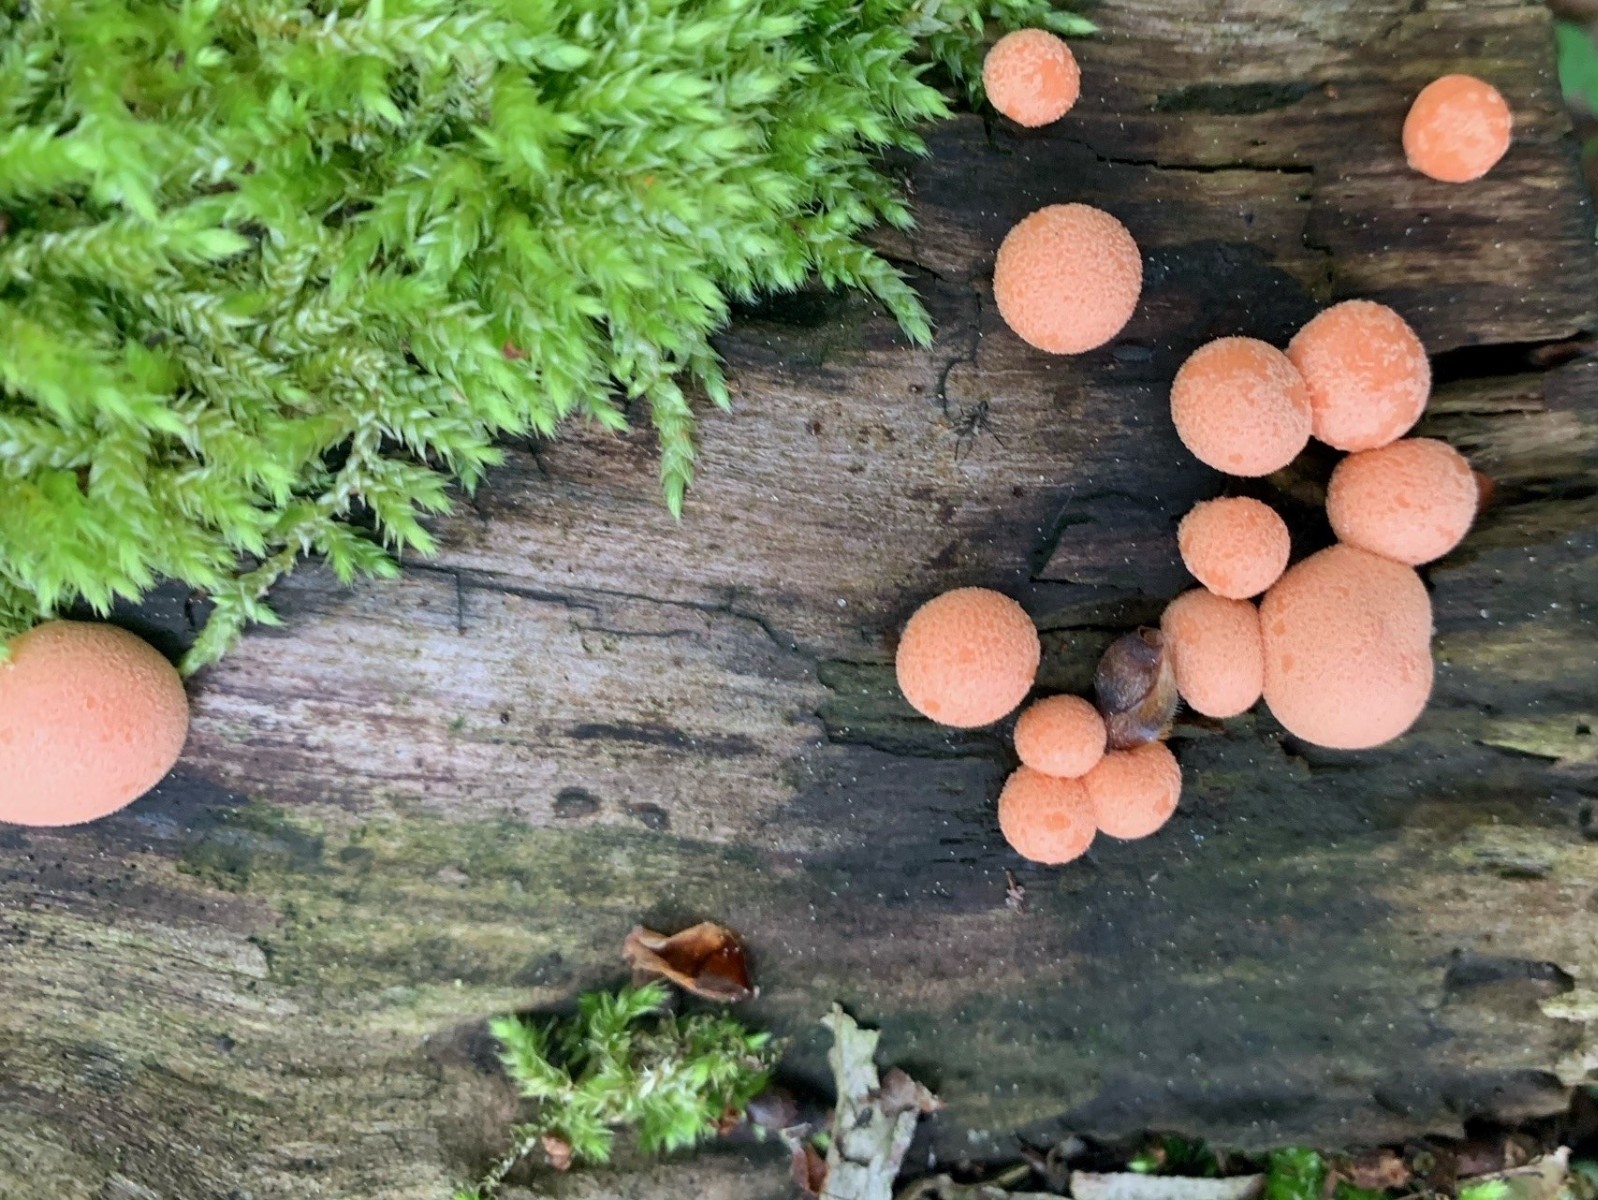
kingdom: Protozoa
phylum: Mycetozoa
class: Myxomycetes
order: Cribrariales
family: Tubiferaceae
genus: Lycogala
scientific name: Lycogala epidendrum
